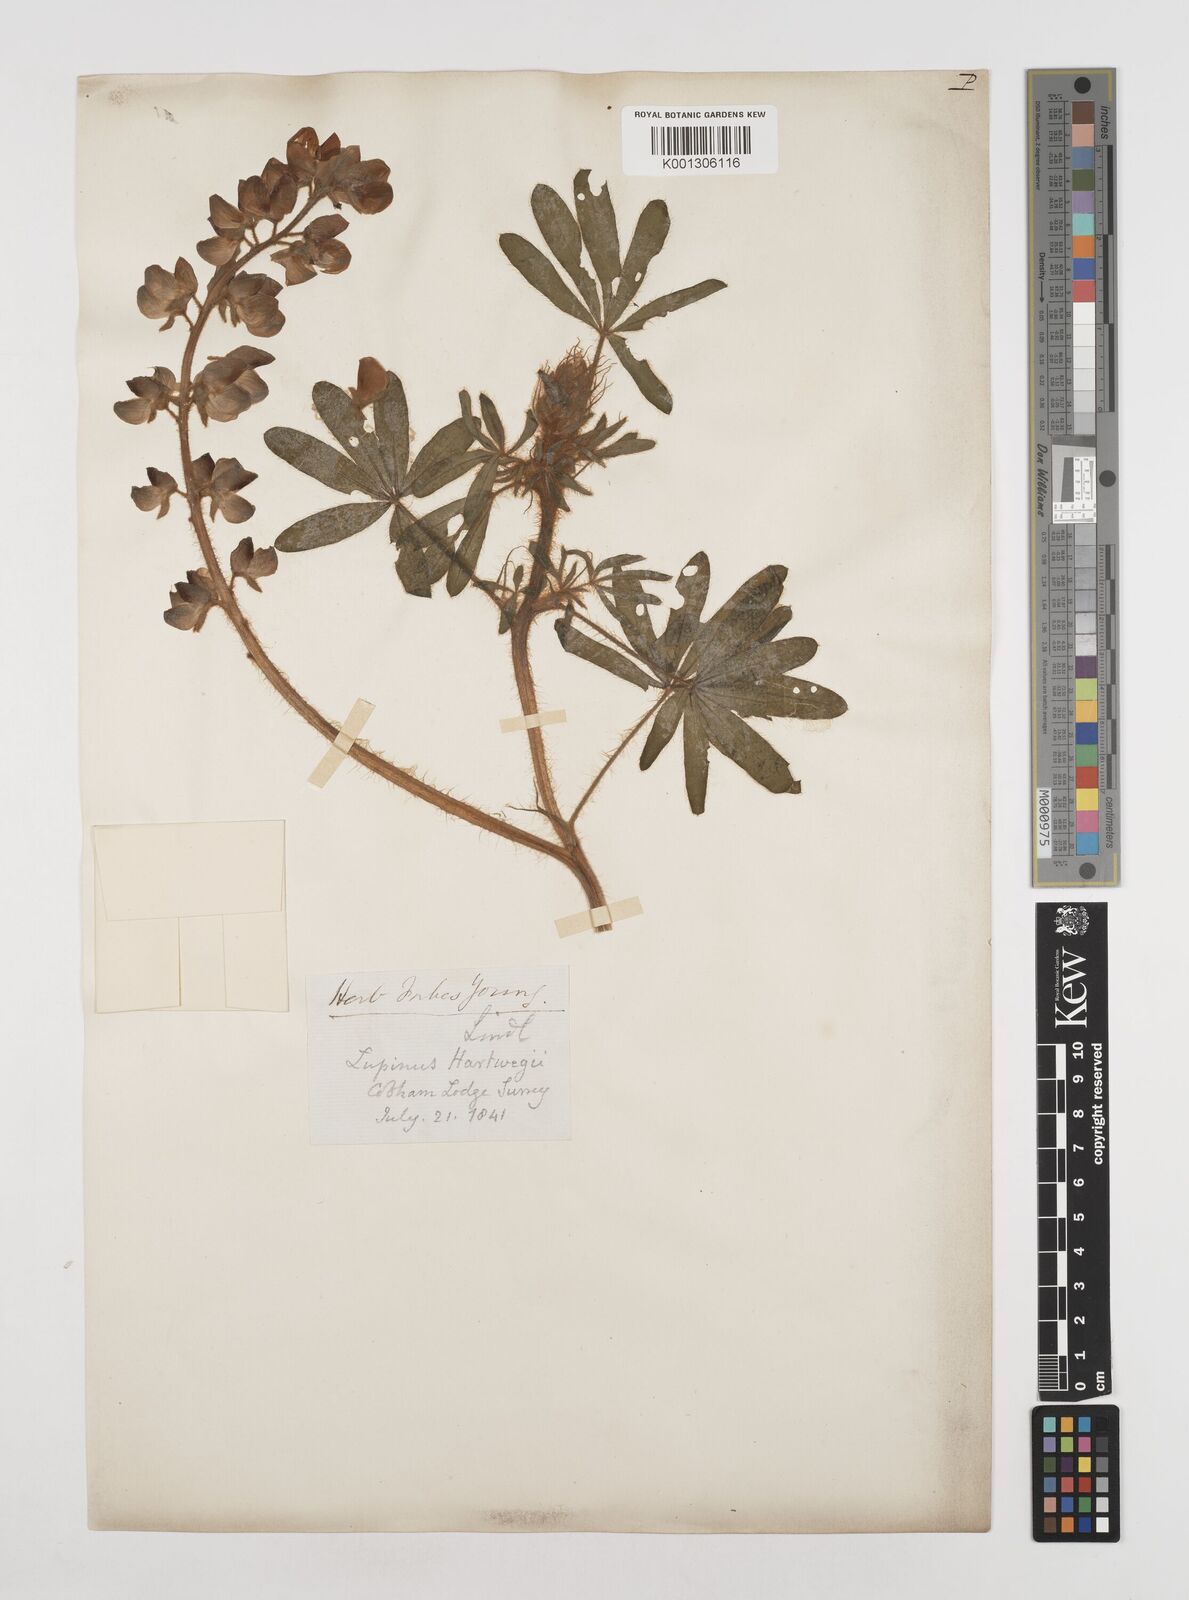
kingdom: Plantae
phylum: Tracheophyta
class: Magnoliopsida
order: Fabales
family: Fabaceae
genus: Lupinus
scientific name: Lupinus ehrenbergii
